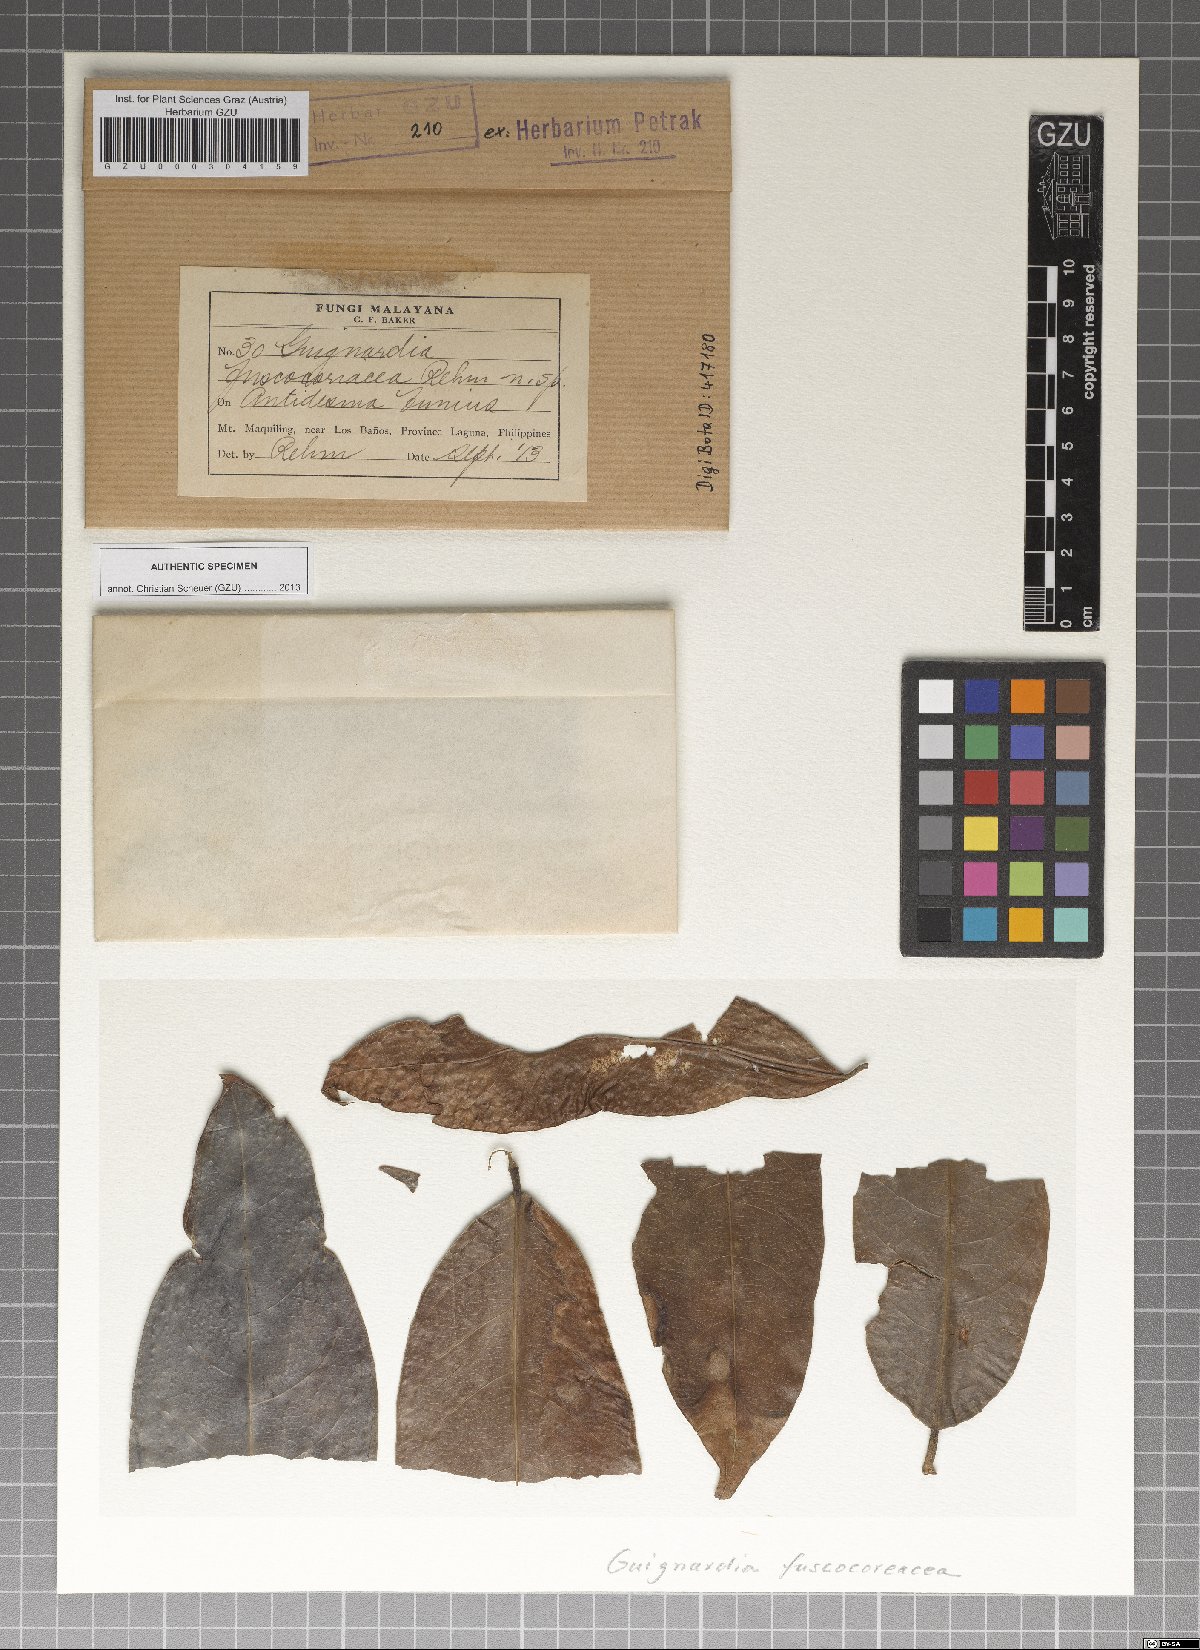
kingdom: Fungi
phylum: Ascomycota
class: Dothideomycetes
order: Botryosphaeriales
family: Phyllostictaceae
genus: Guignardia
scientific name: Guignardia fuscocoriacea
